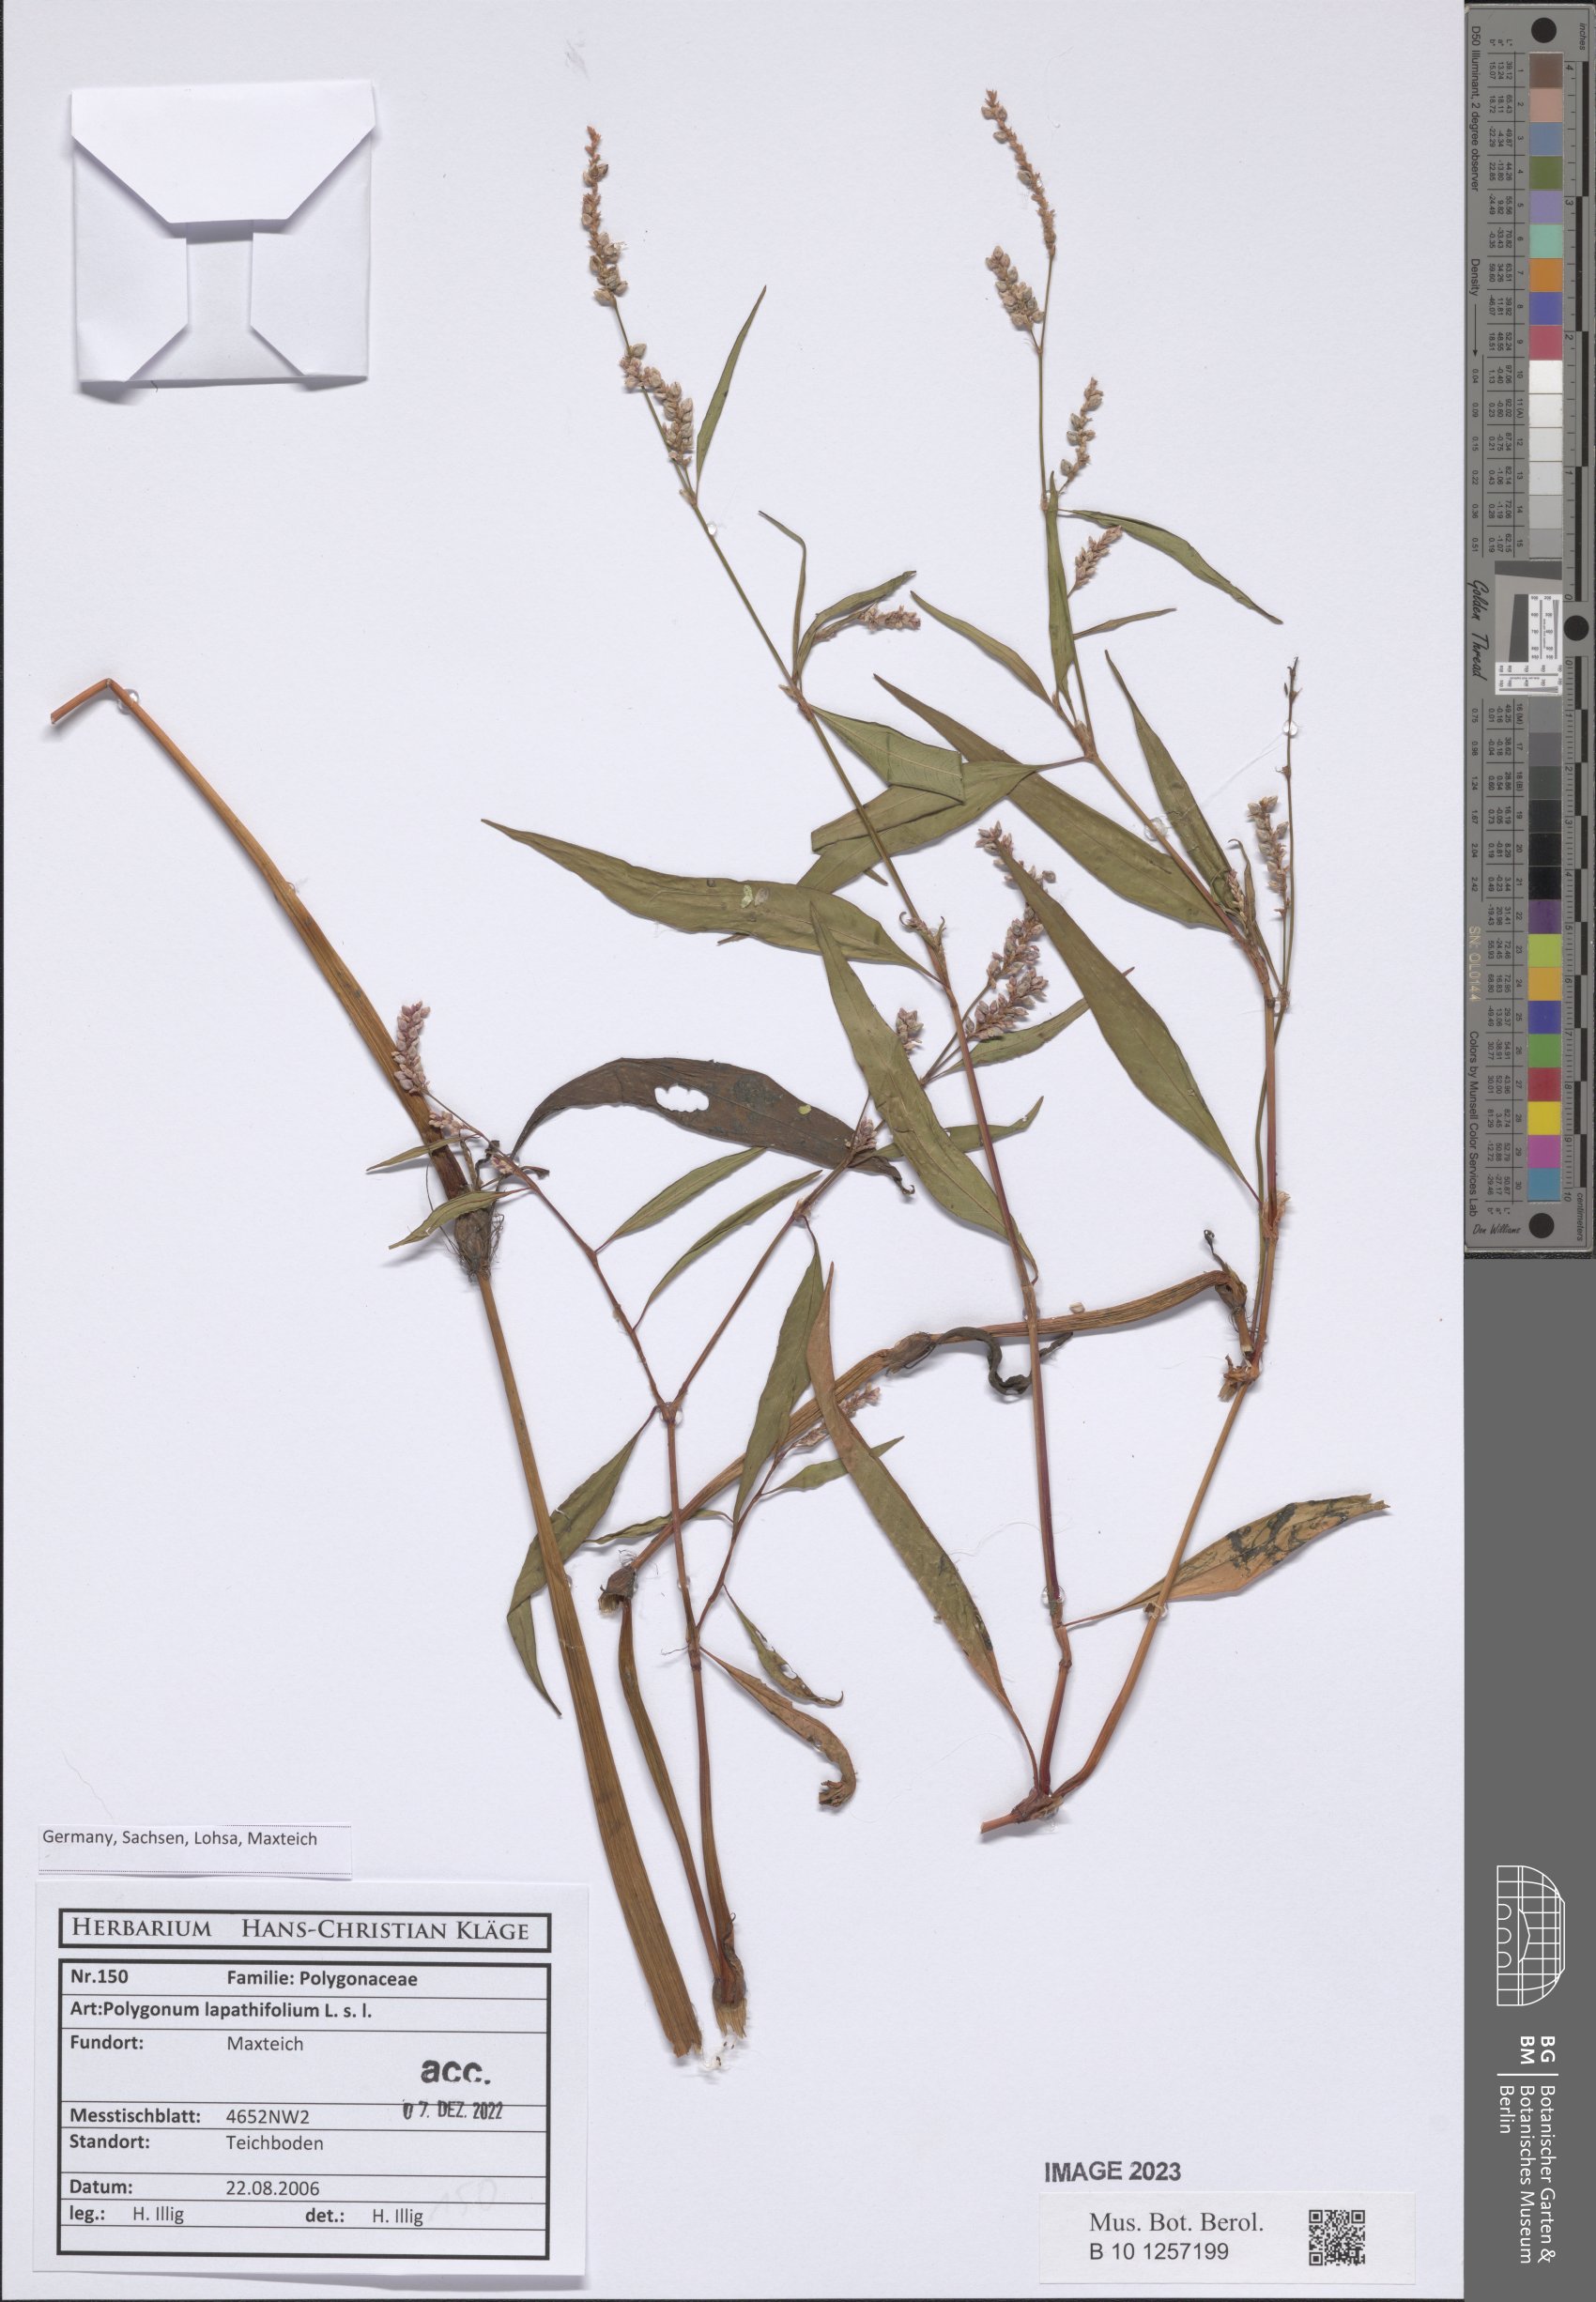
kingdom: Plantae
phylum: Tracheophyta
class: Magnoliopsida
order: Caryophyllales
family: Polygonaceae
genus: Persicaria
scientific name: Persicaria lapathifolia
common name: Curlytop knotweed
